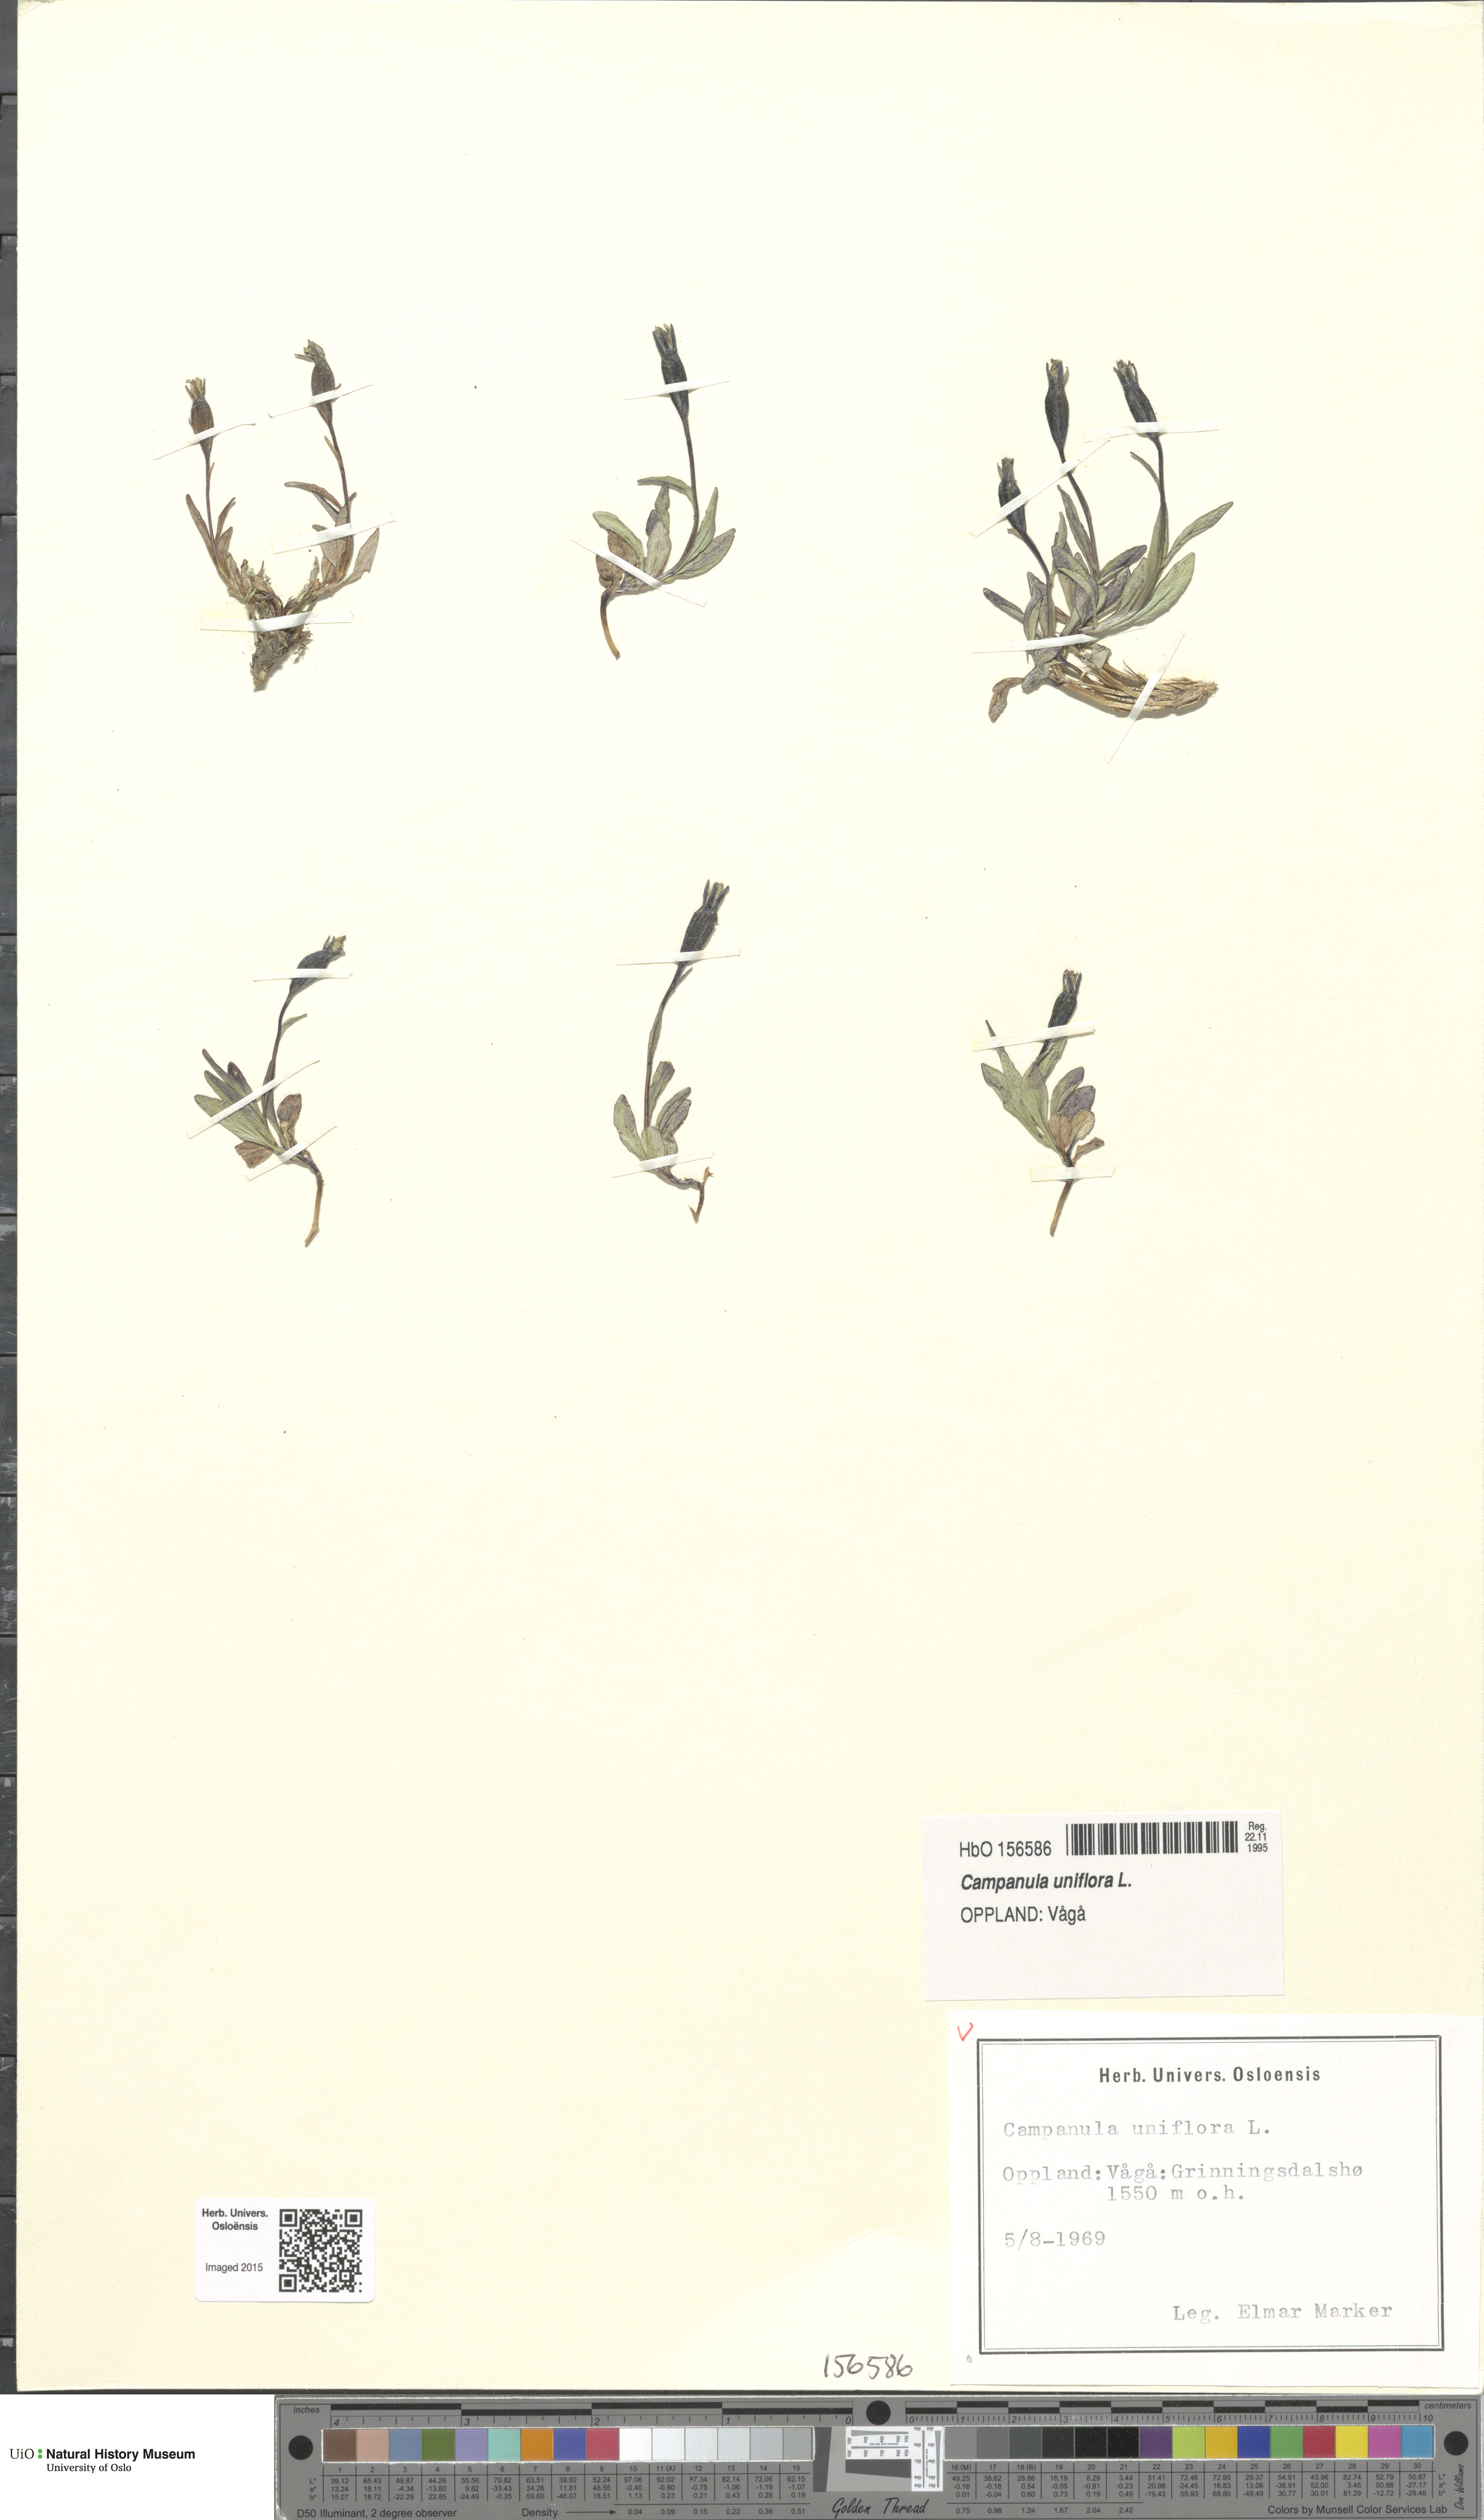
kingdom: Plantae
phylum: Tracheophyta
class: Magnoliopsida
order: Asterales
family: Campanulaceae
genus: Melanocalyx
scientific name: Melanocalyx uniflora
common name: Alpine harebell
